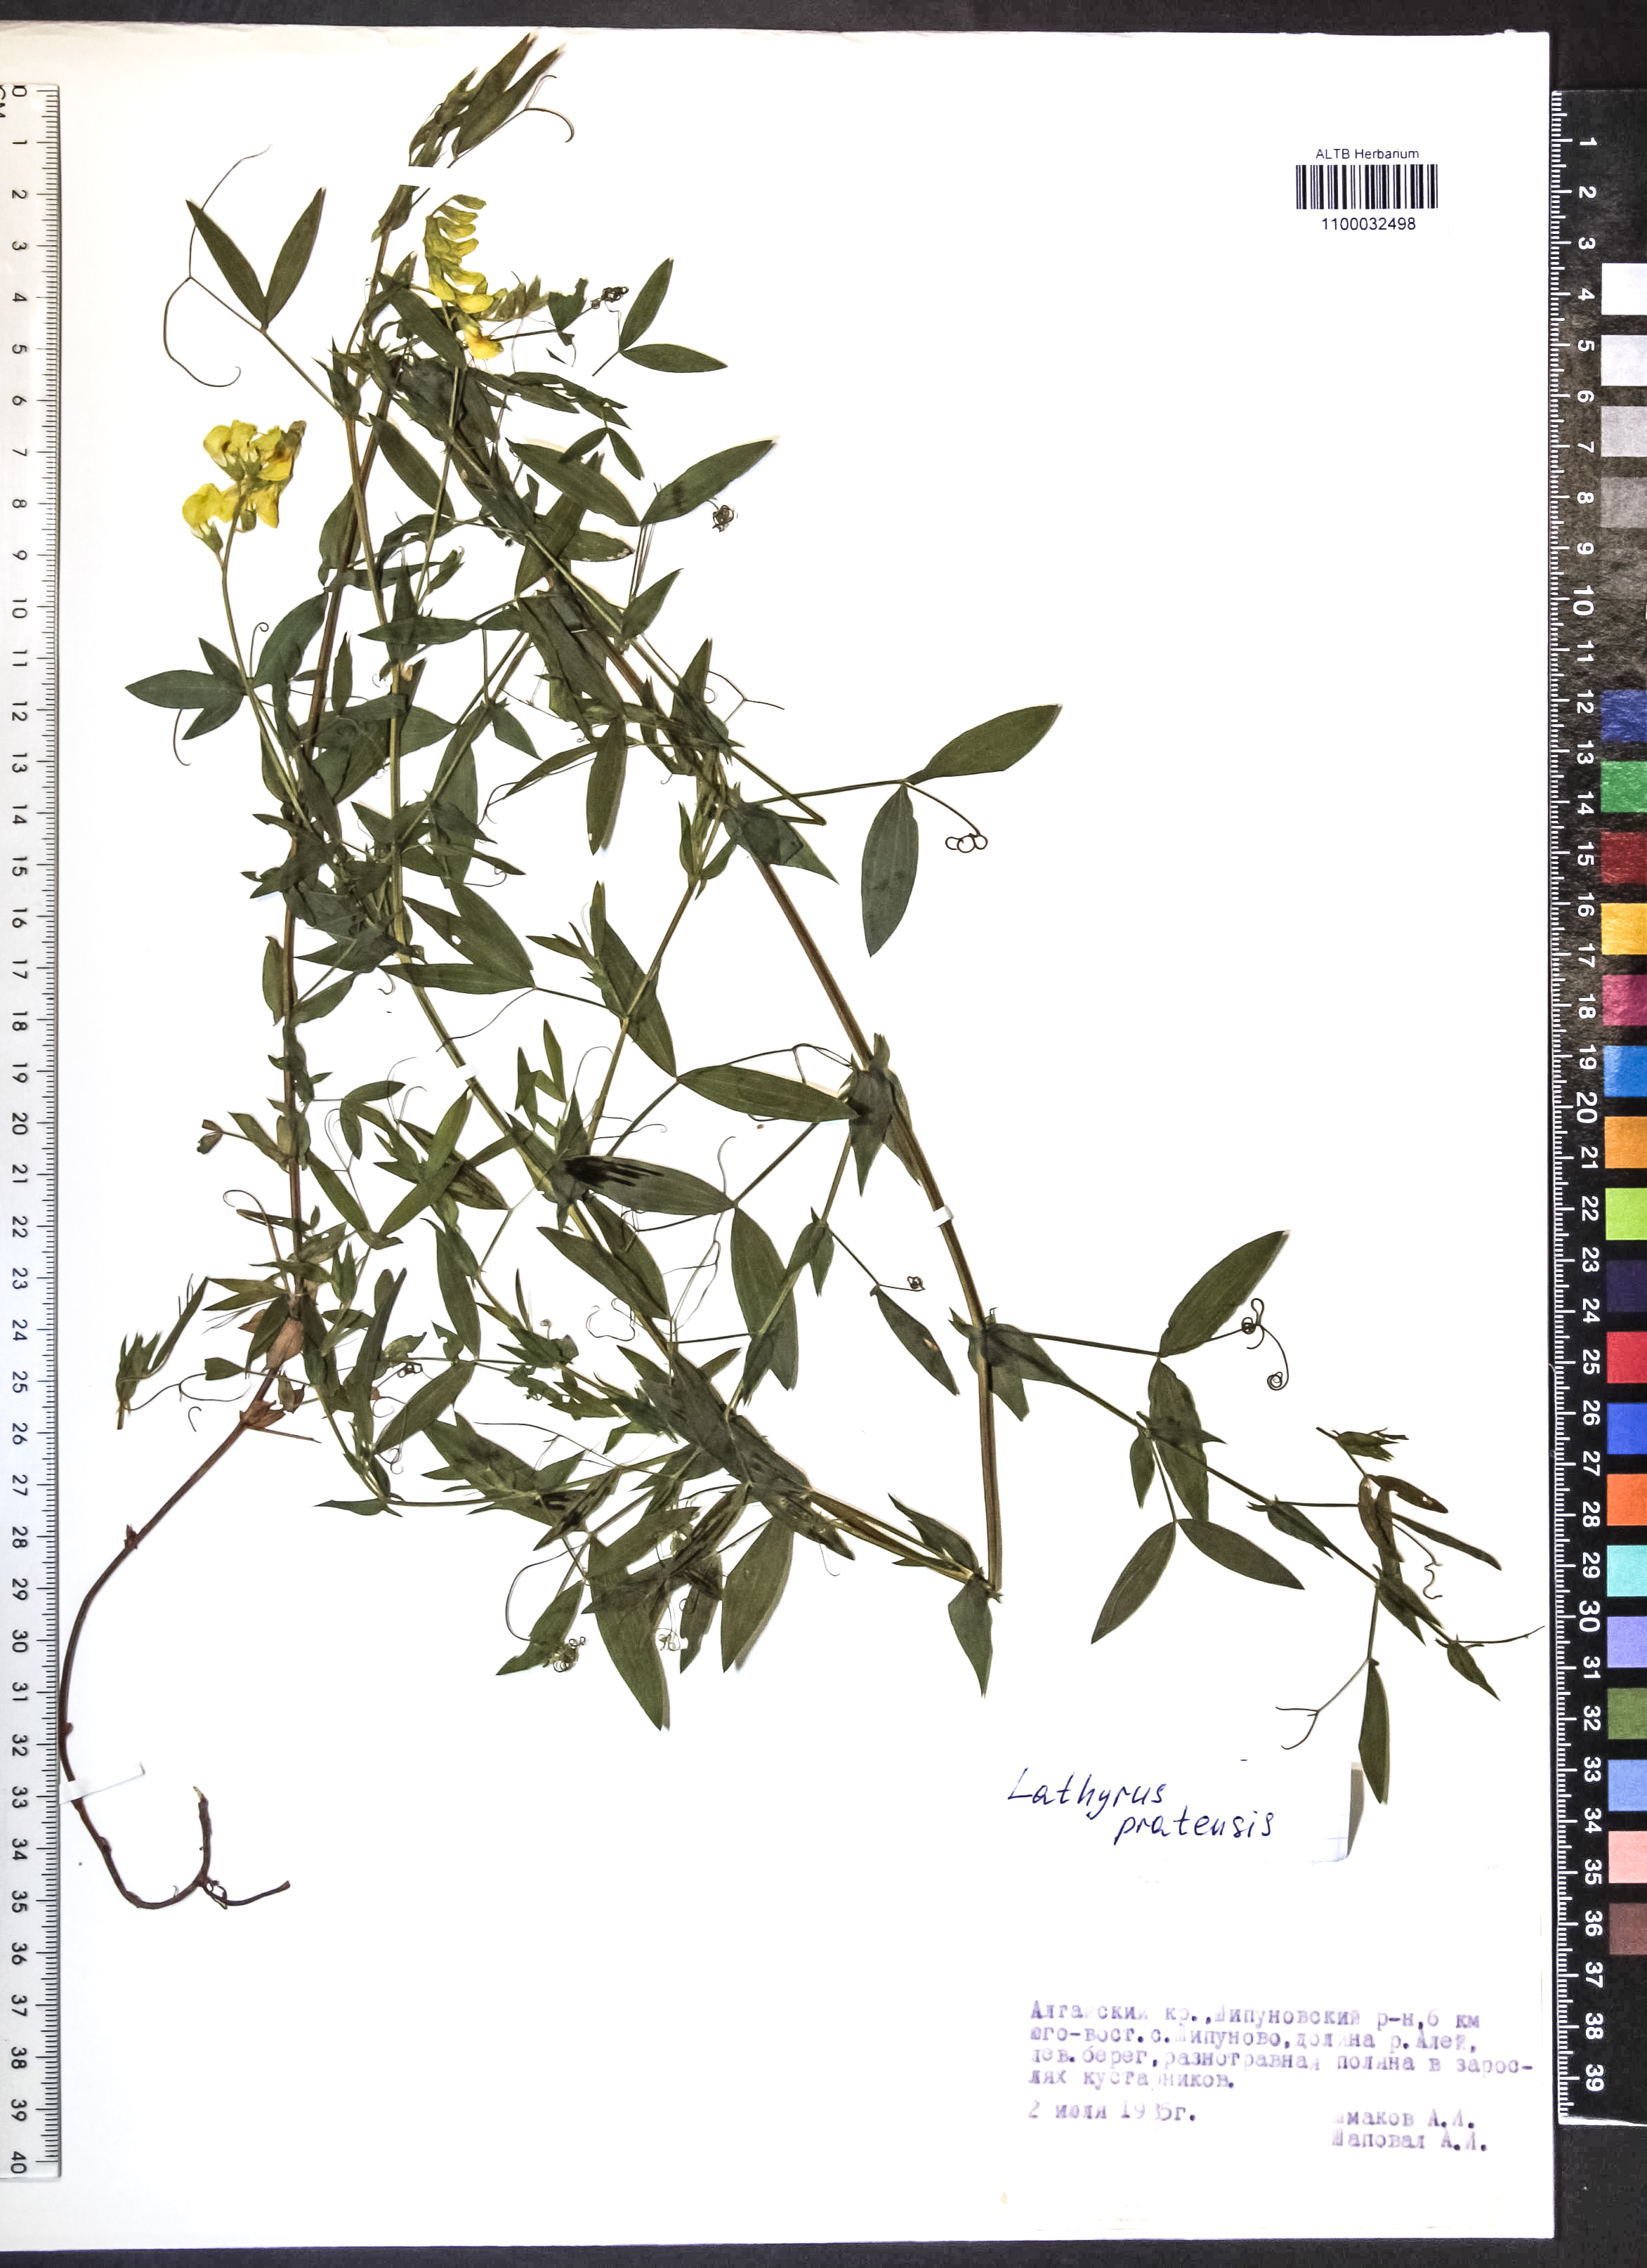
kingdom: Plantae
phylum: Tracheophyta
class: Magnoliopsida
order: Fabales
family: Fabaceae
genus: Lathyrus
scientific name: Lathyrus pratensis
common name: Meadow vetchling
